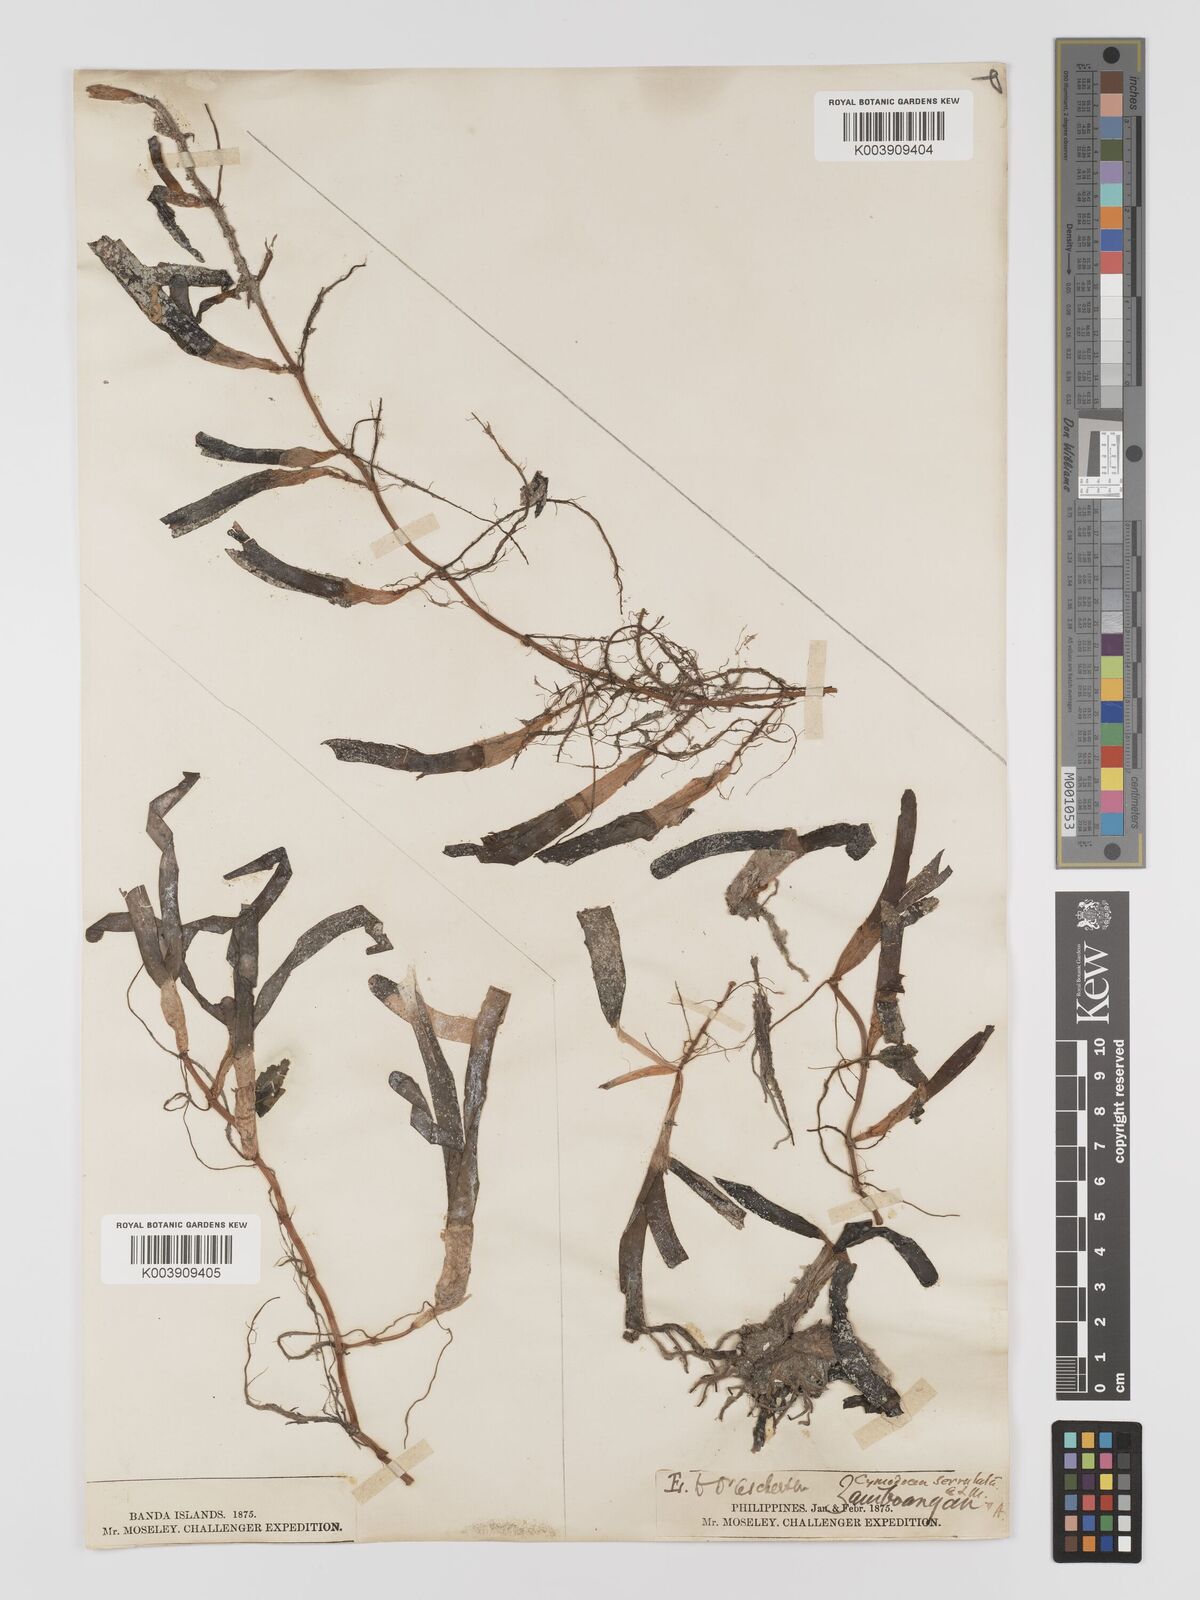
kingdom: Plantae
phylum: Tracheophyta
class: Liliopsida
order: Alismatales
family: Cymodoceaceae
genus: Oceana
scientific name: Oceana serrulata
